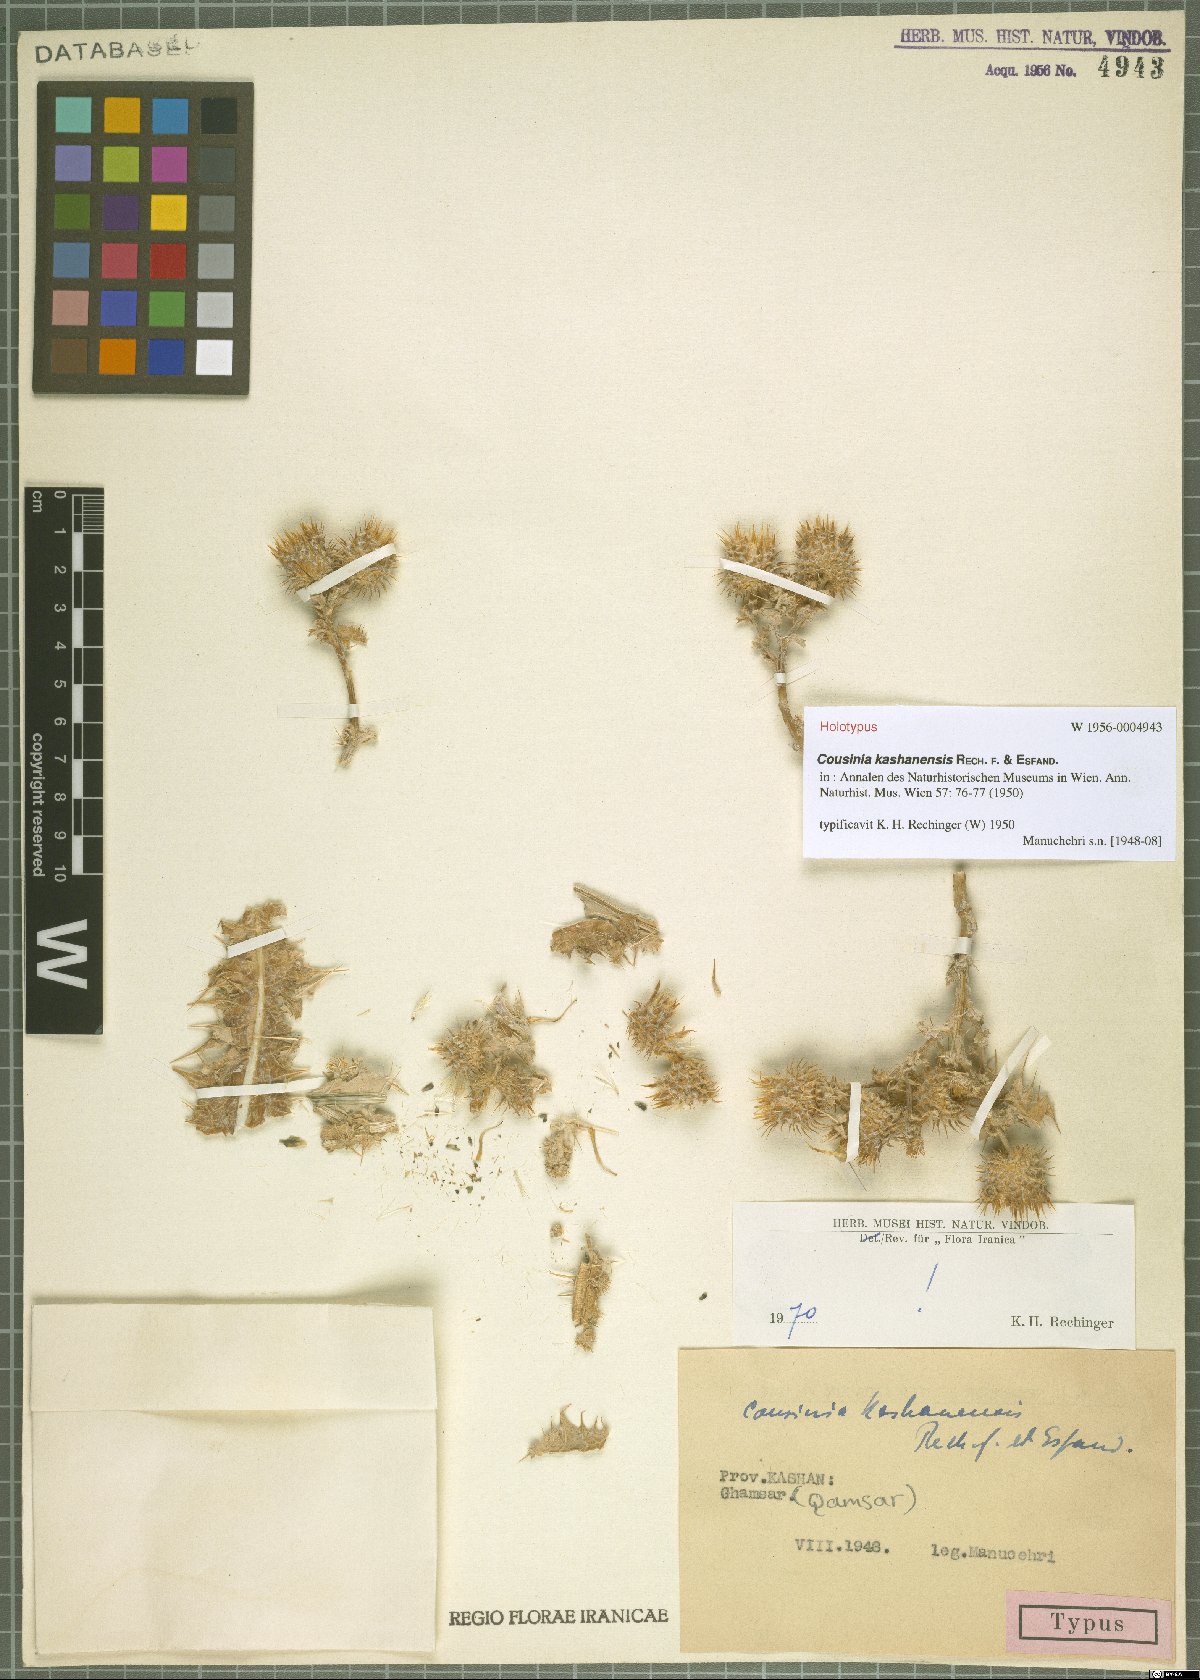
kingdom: Plantae
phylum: Tracheophyta
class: Magnoliopsida
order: Asterales
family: Asteraceae
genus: Cousinia
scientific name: Cousinia lachnosphaera
